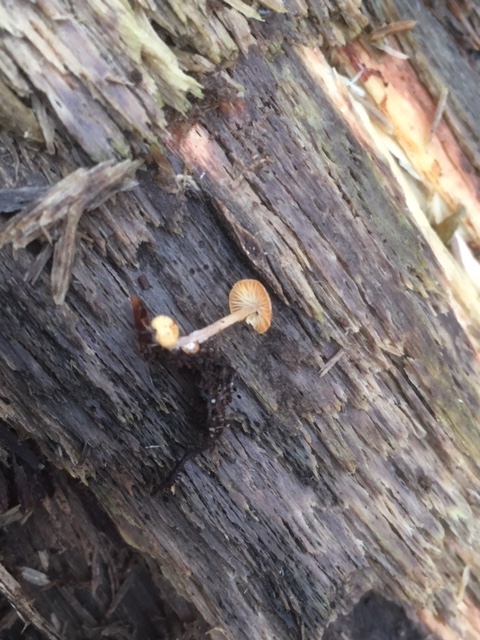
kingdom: Fungi
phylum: Basidiomycota
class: Agaricomycetes
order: Agaricales
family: Tricholomataceae
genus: Collybia
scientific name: Collybia cookei
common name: gulknoldet lighat
